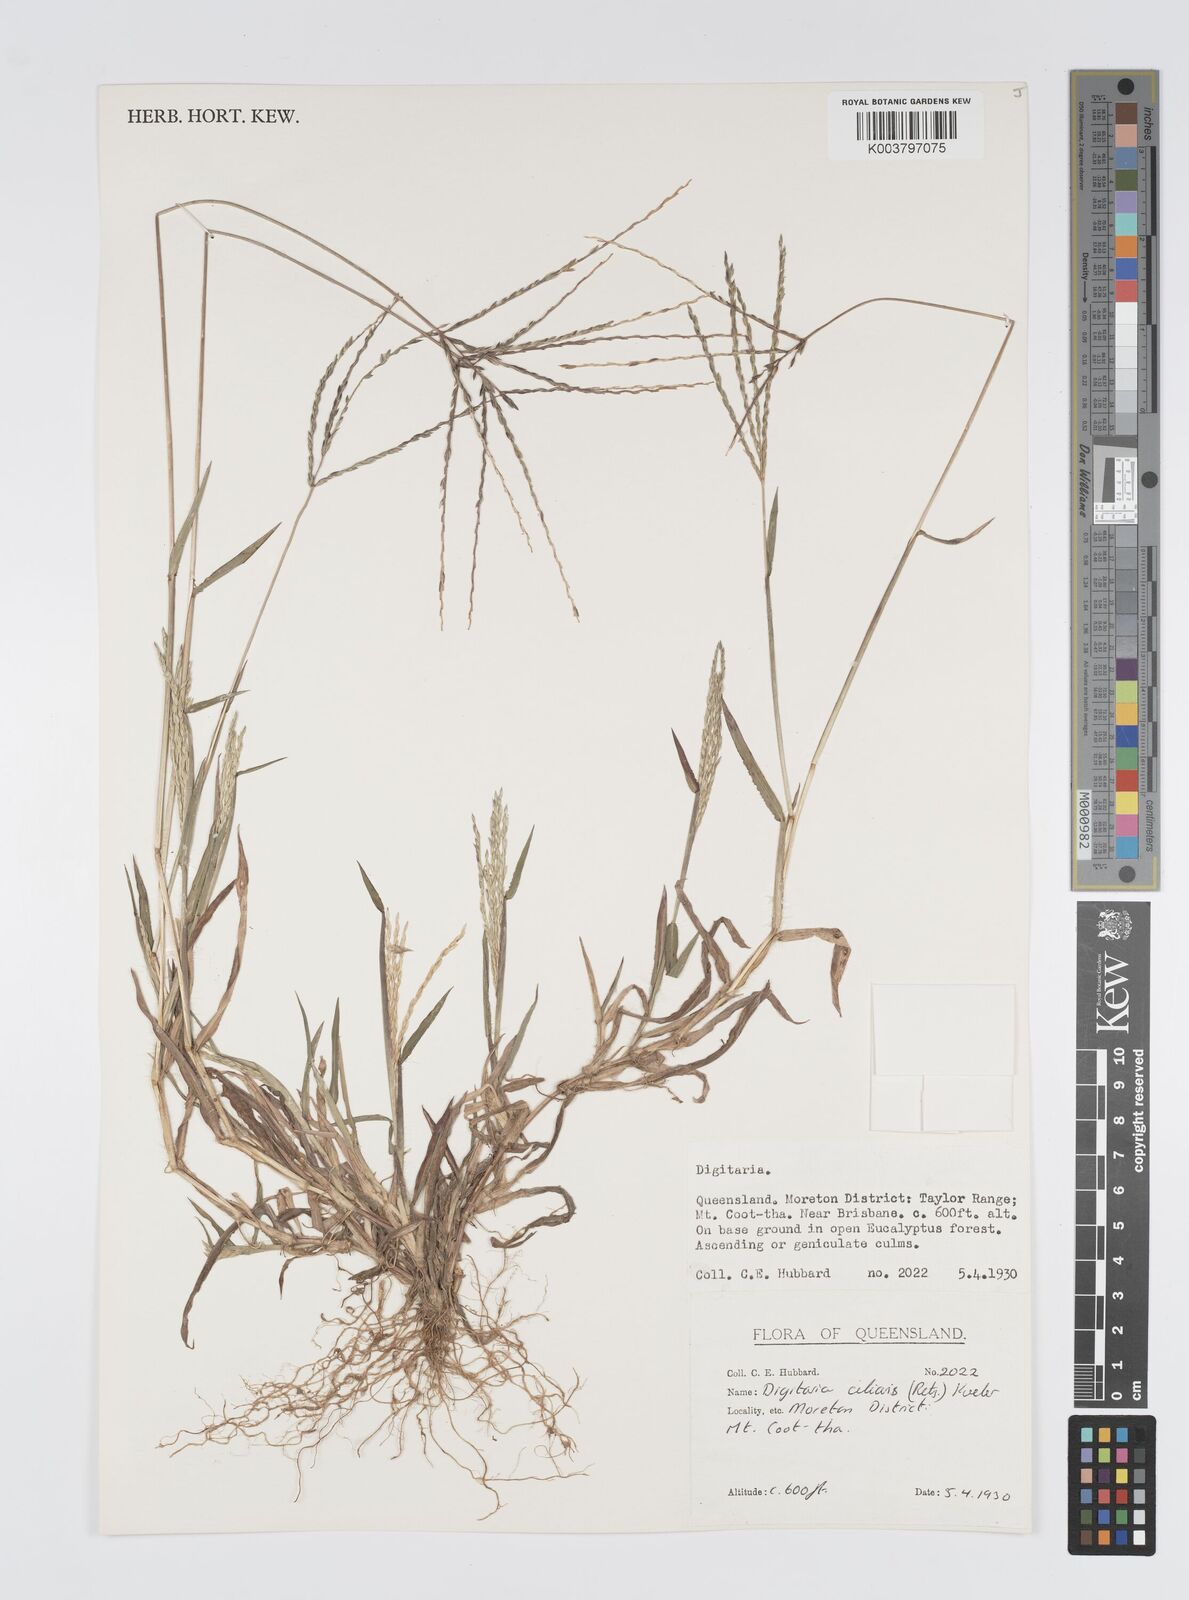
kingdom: Plantae
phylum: Tracheophyta
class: Liliopsida
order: Poales
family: Poaceae
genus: Digitaria
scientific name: Digitaria ciliaris
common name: Tropical finger-grass
